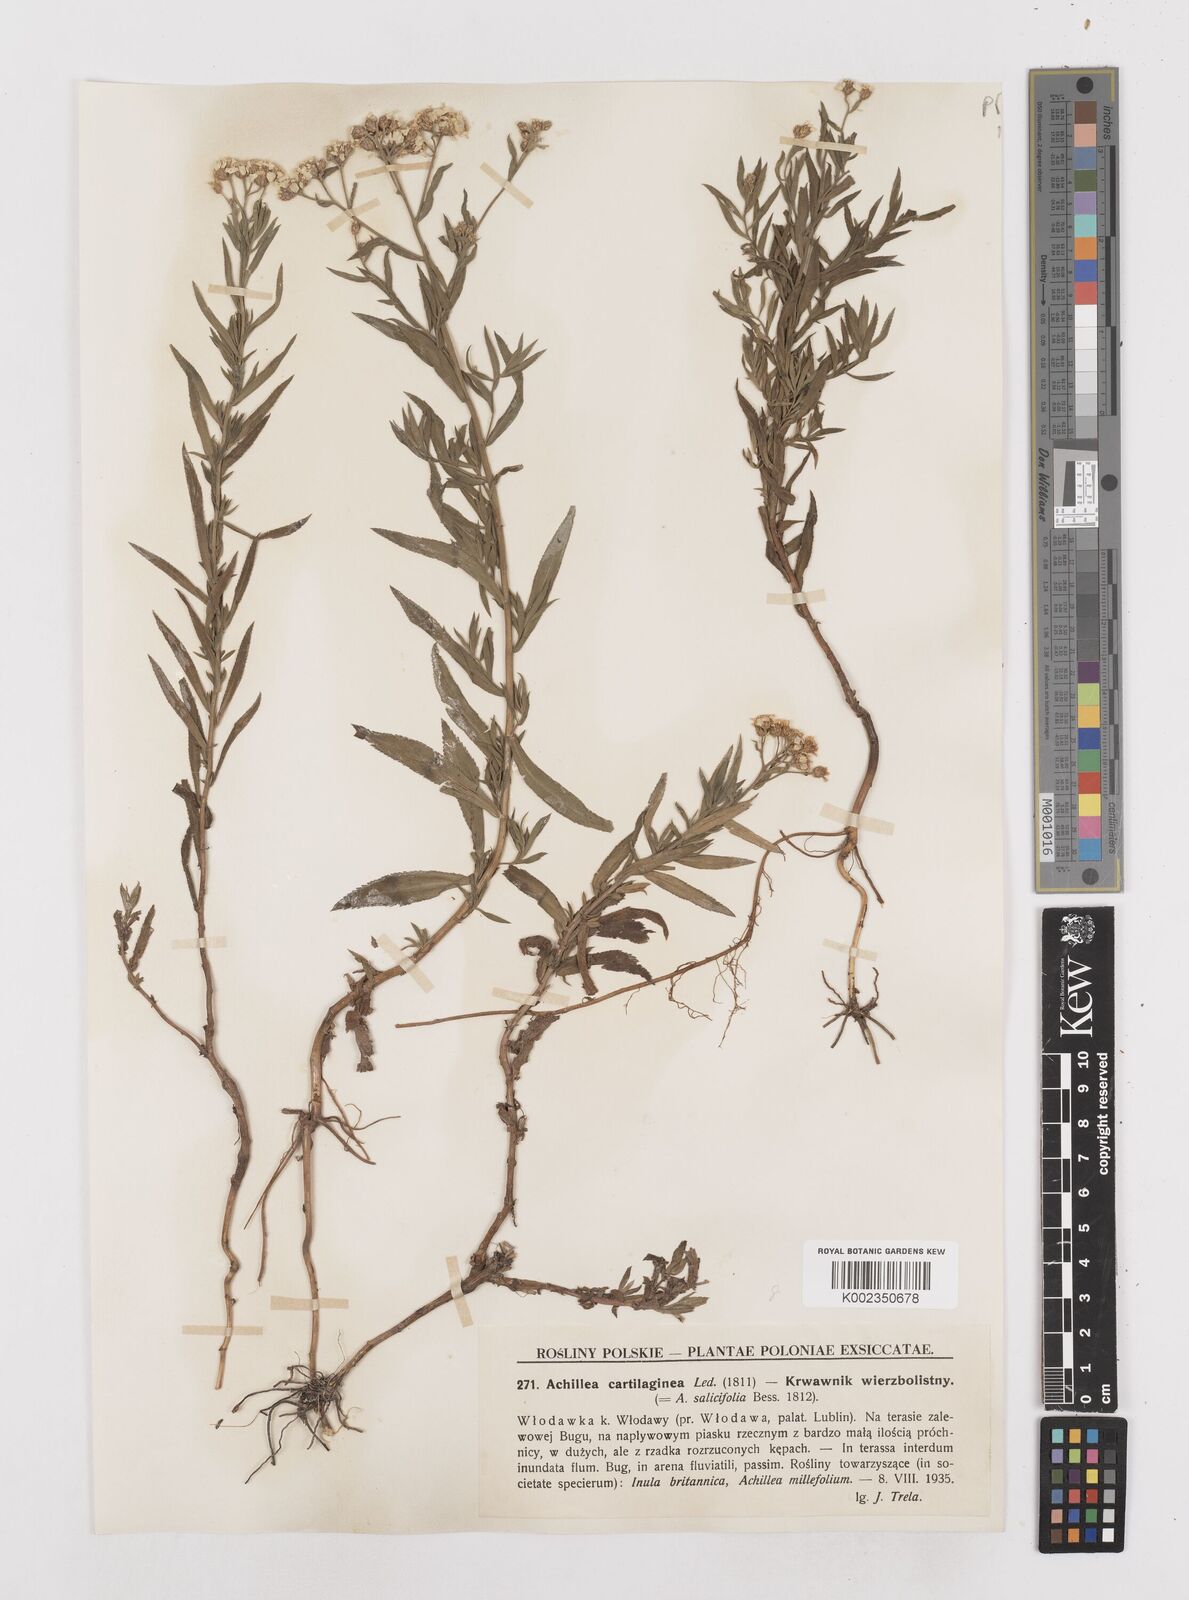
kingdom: Plantae
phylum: Tracheophyta
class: Magnoliopsida
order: Asterales
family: Asteraceae
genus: Achillea
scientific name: Achillea salicifolia
